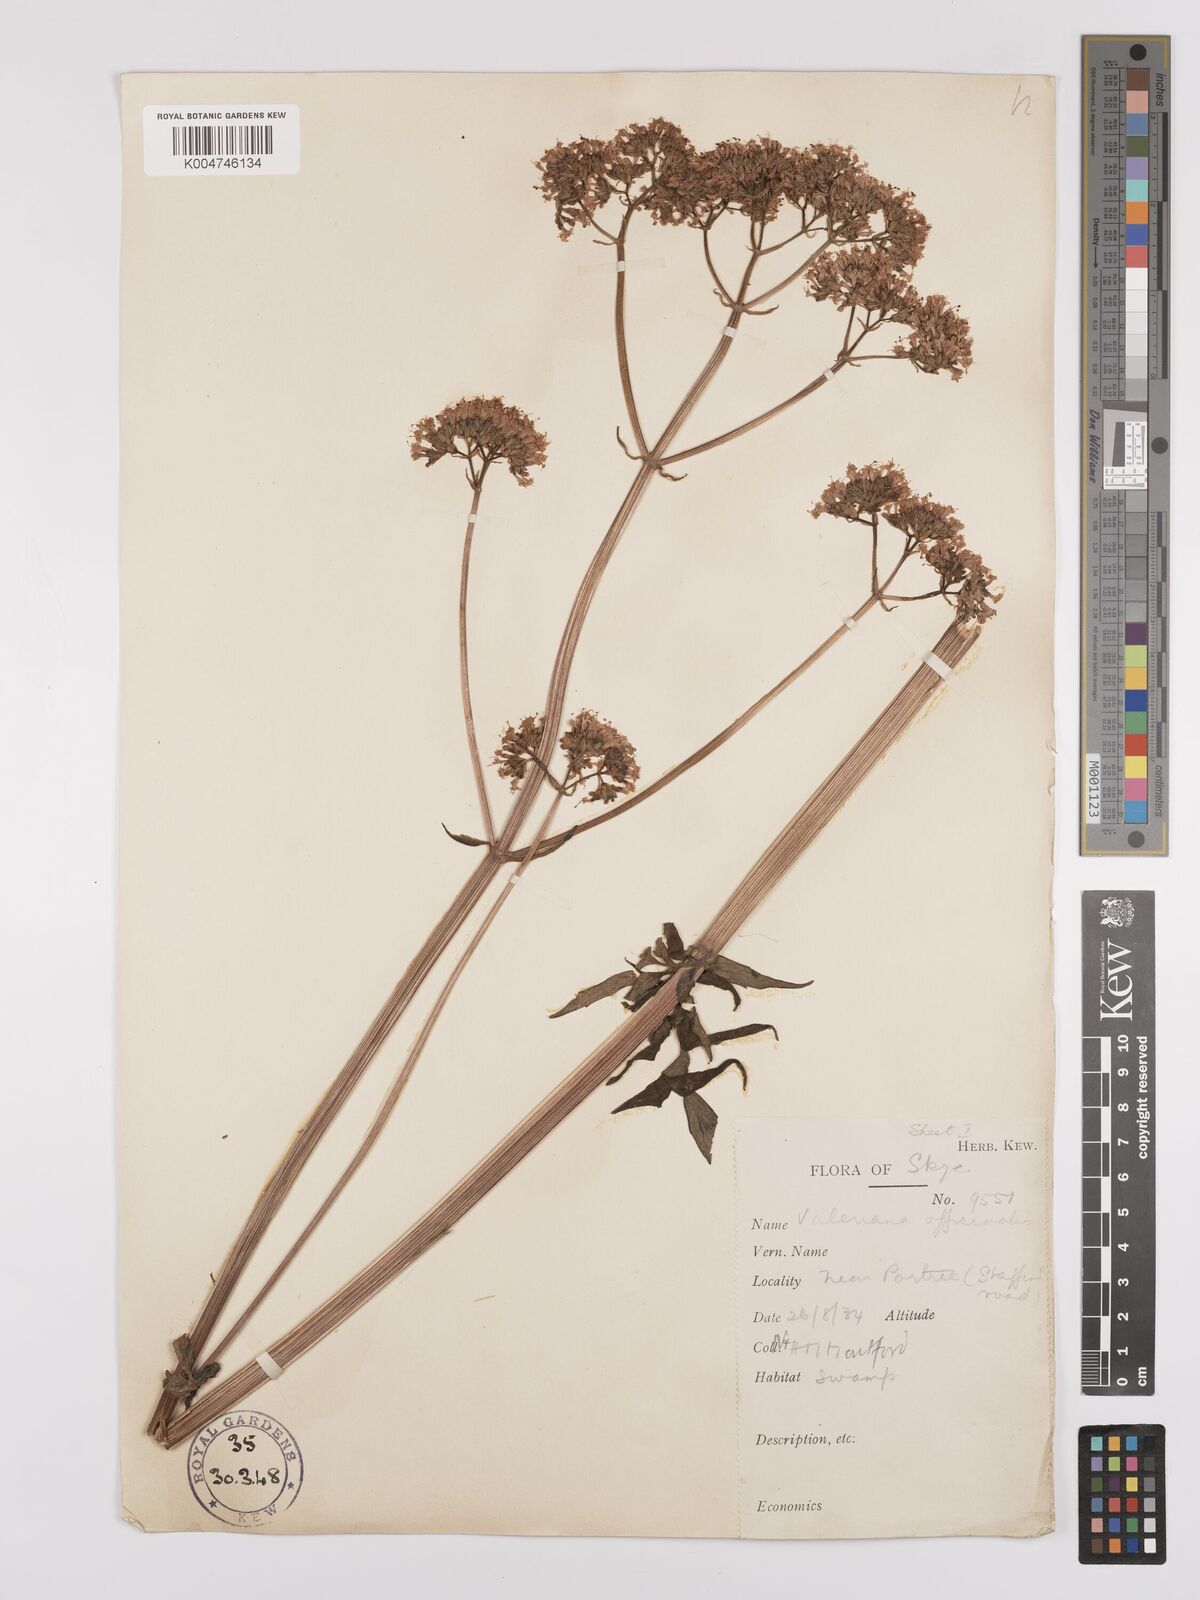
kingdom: Plantae
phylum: Tracheophyta
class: Magnoliopsida
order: Dipsacales
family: Caprifoliaceae
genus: Valeriana
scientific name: Valeriana excelsa
